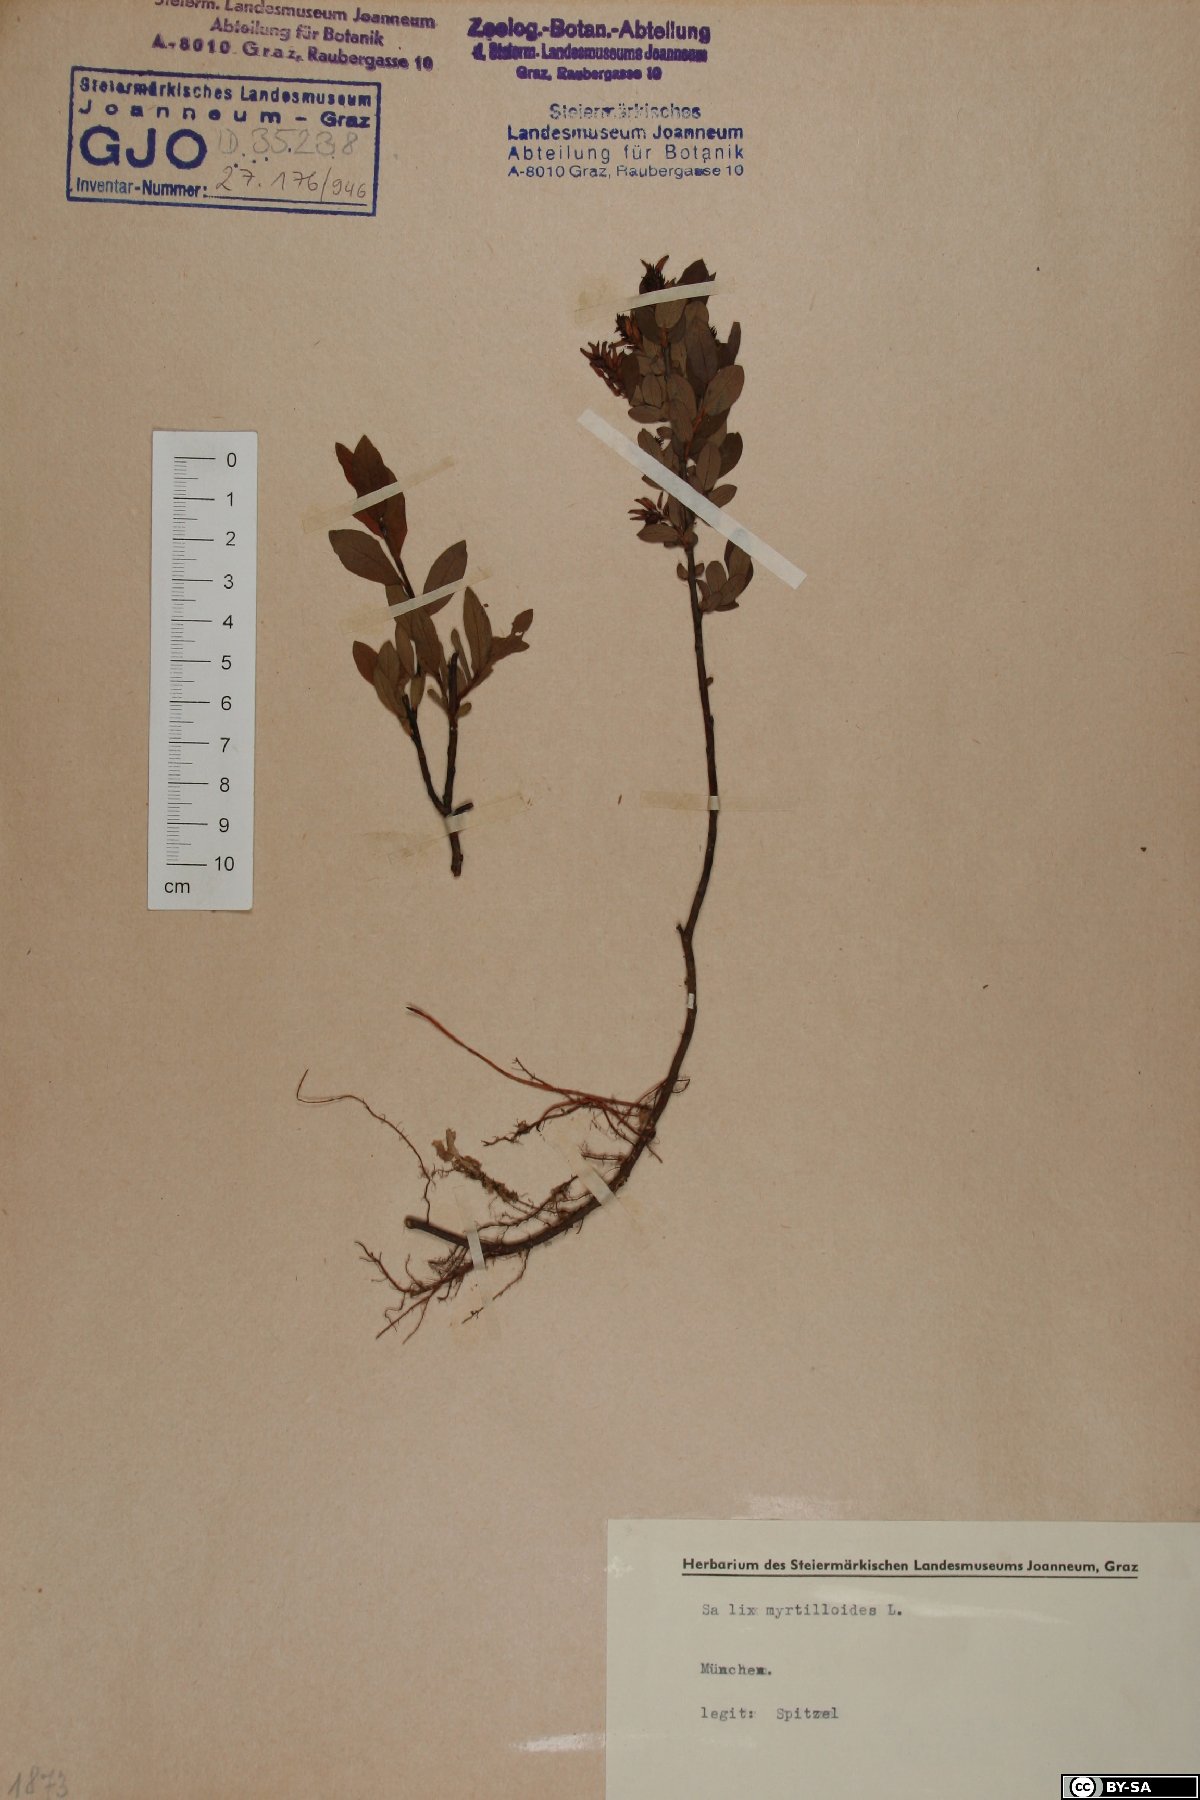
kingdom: Plantae
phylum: Tracheophyta
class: Magnoliopsida
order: Malpighiales
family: Salicaceae
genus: Salix
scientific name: Salix myrtilloides
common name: Myrtle-leaved willow
